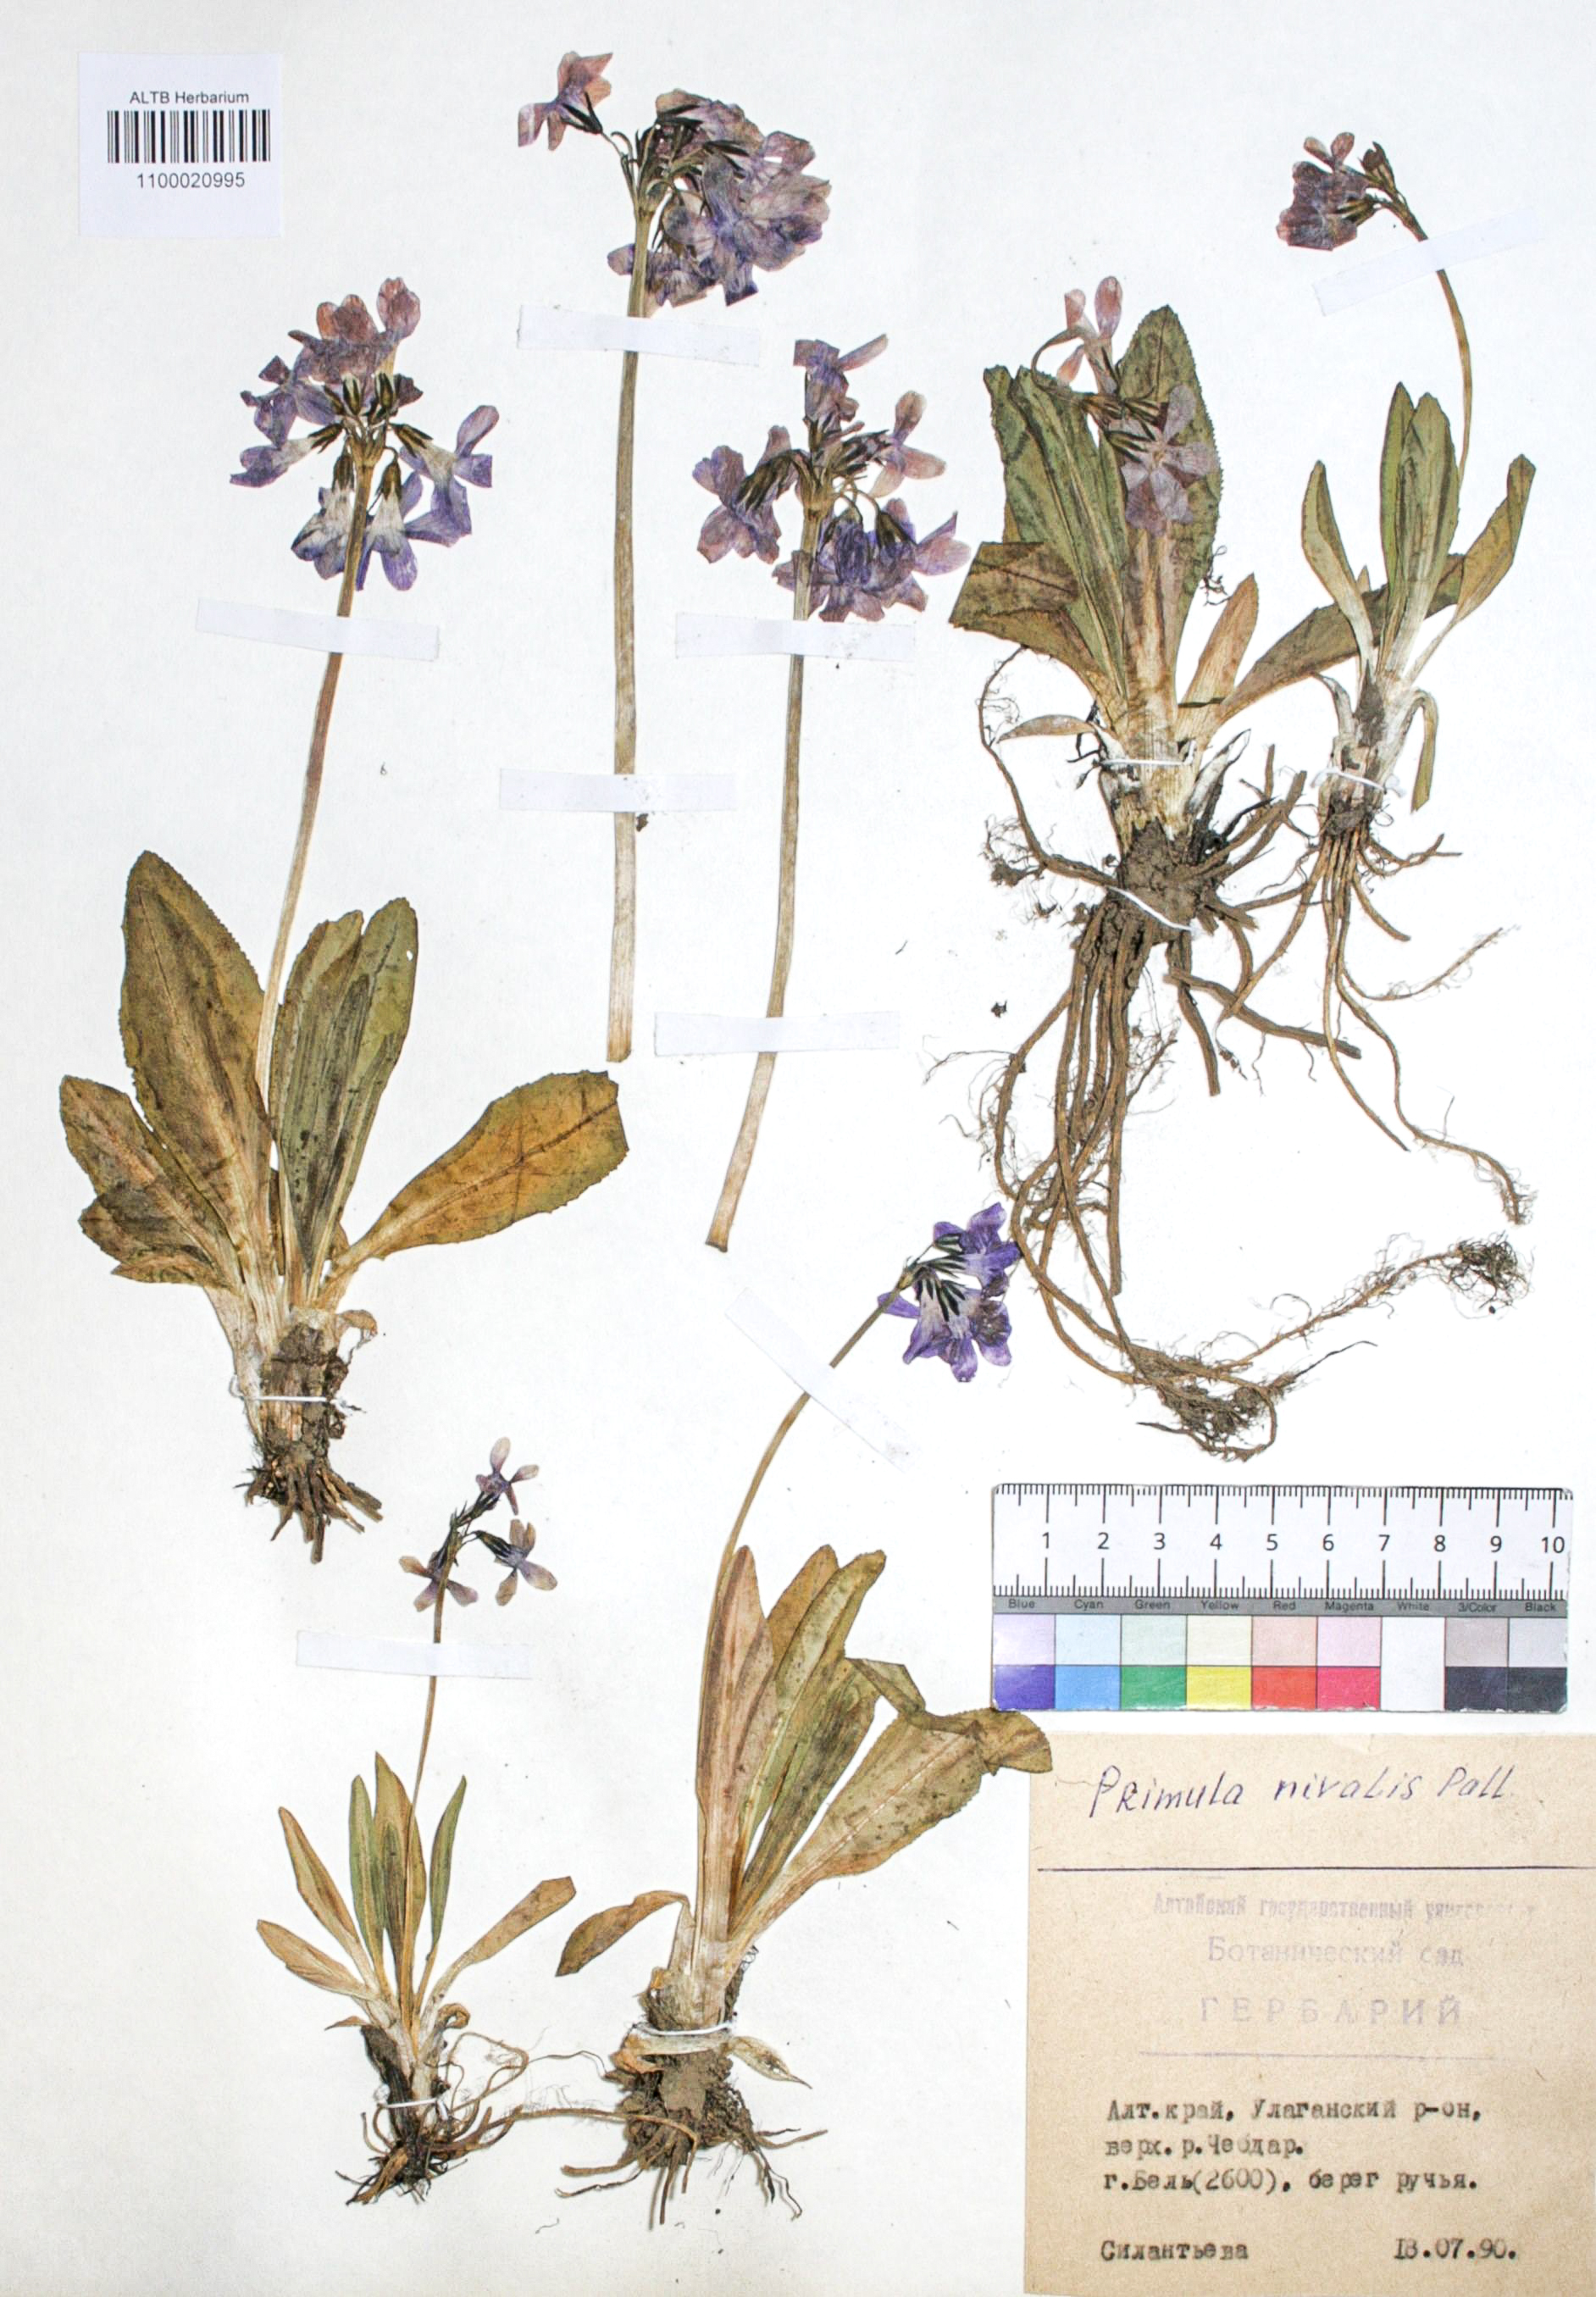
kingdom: Plantae
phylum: Tracheophyta
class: Magnoliopsida
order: Ericales
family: Primulaceae
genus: Primula
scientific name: Primula nivalis
